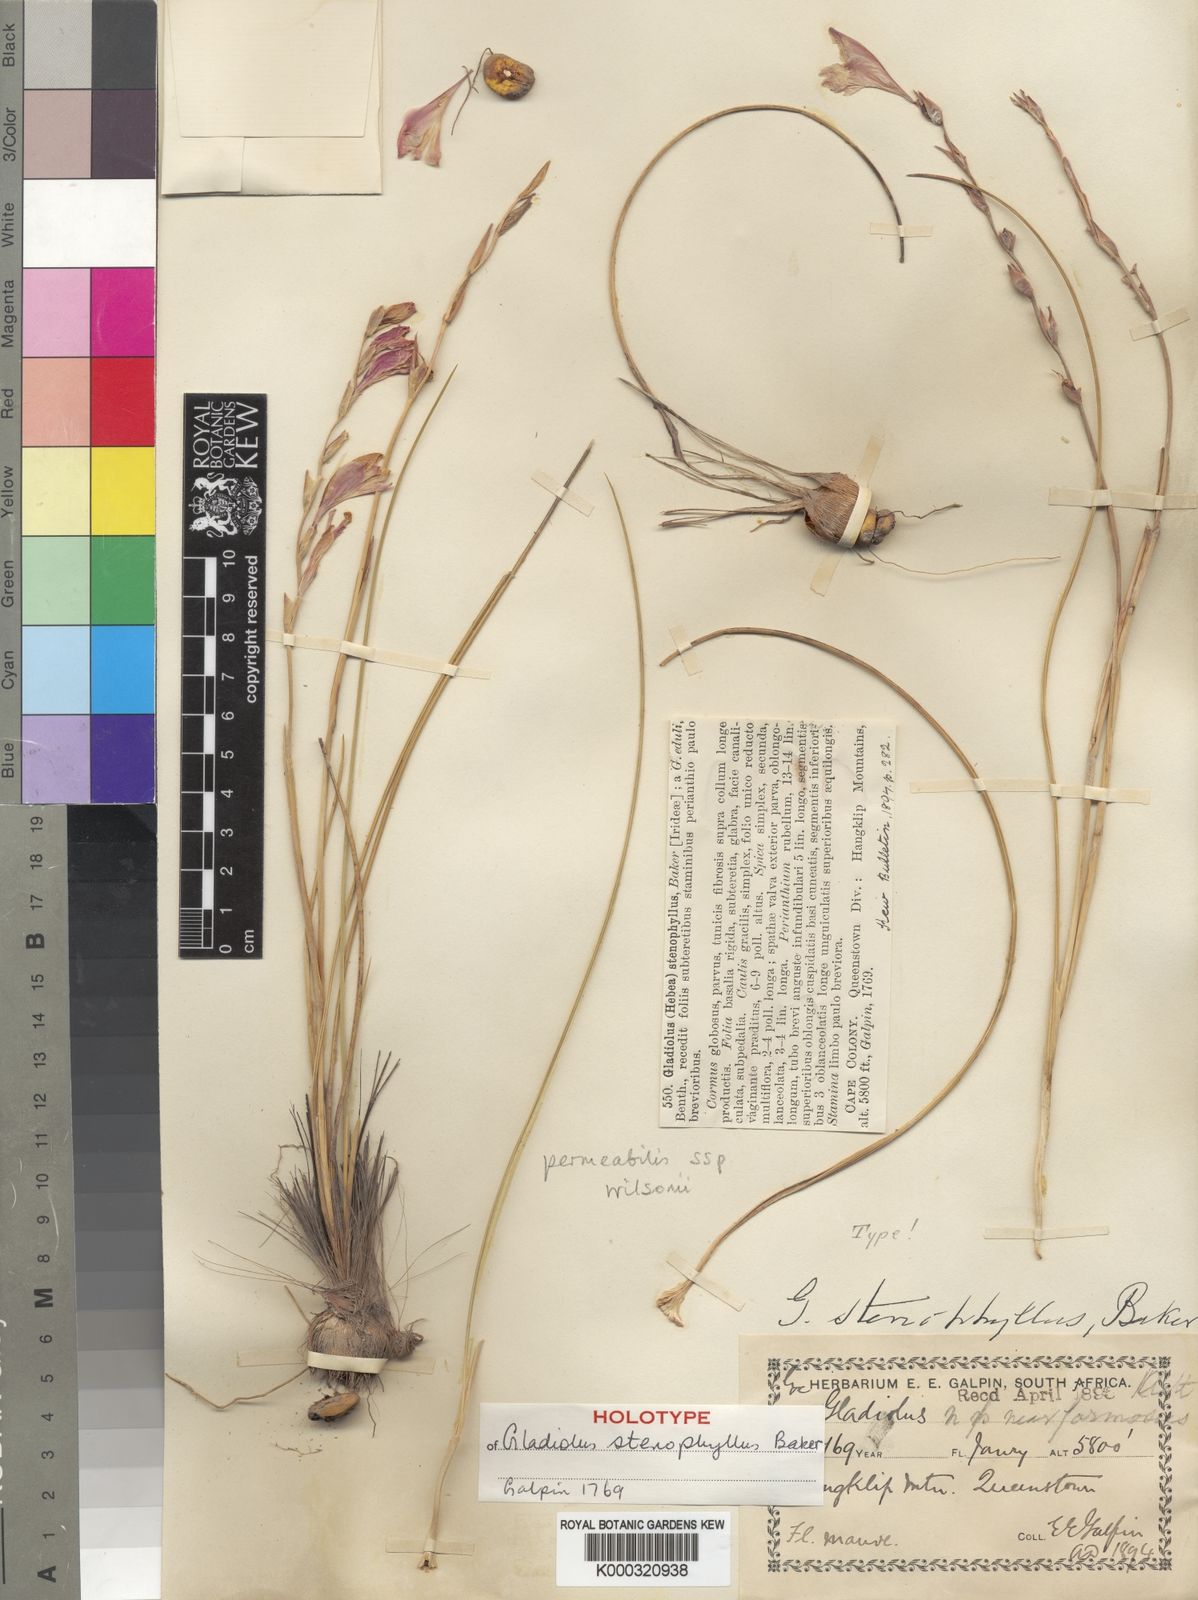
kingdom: Plantae
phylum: Tracheophyta
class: Liliopsida
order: Asparagales
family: Iridaceae
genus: Gladiolus
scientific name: Gladiolus inandensis
